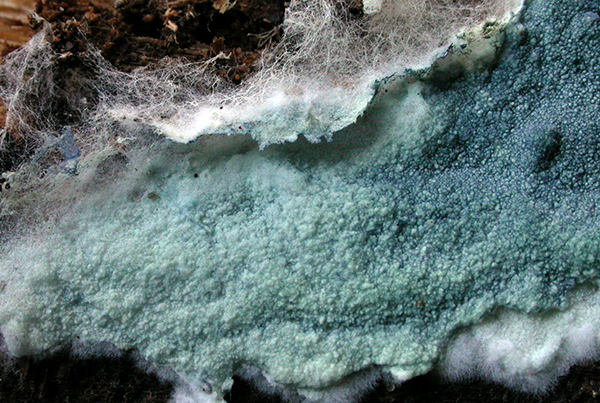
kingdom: Fungi
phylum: Basidiomycota
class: Agaricomycetes
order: Thelephorales
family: Thelephoraceae
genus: Amaurodon
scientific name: Amaurodon mustialaensis
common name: blåsporet frynsehinde
